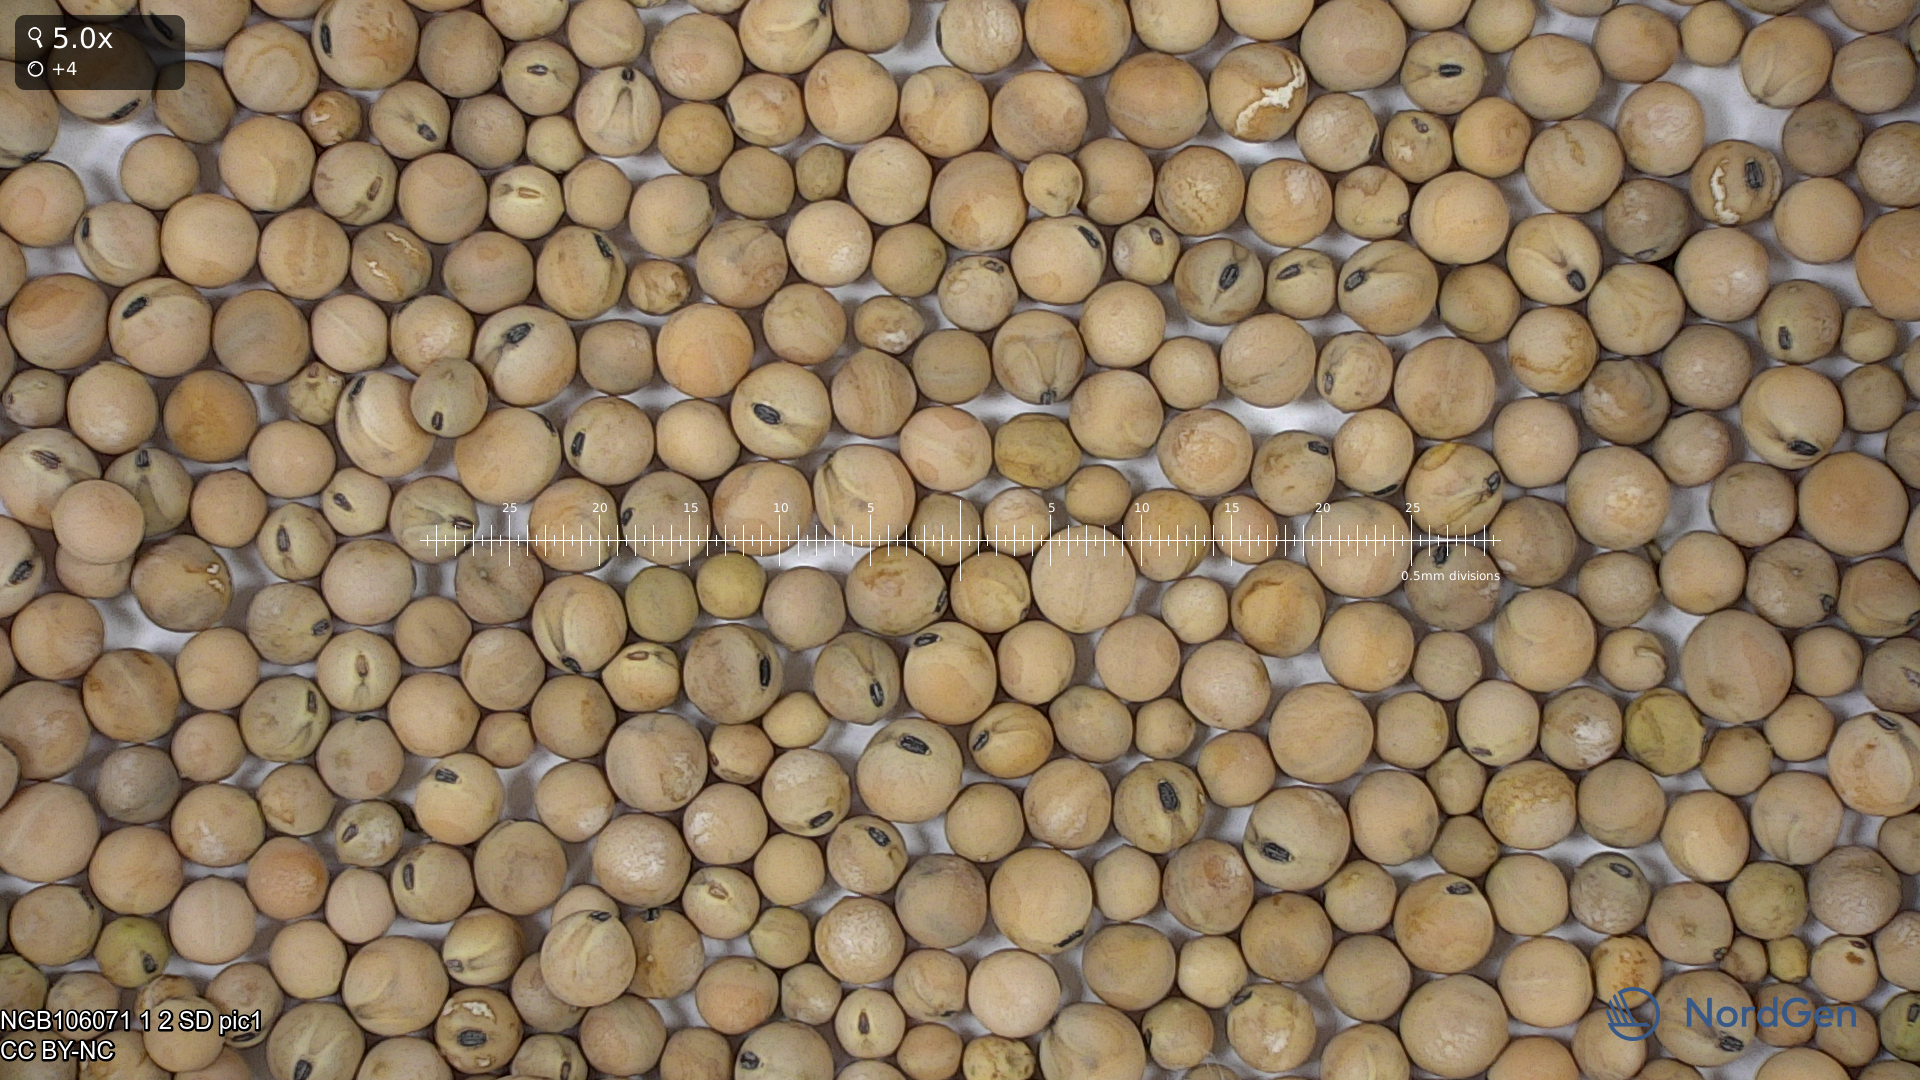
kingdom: Plantae
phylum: Tracheophyta
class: Magnoliopsida
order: Fabales
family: Fabaceae
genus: Lathyrus
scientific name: Lathyrus oleraceus
